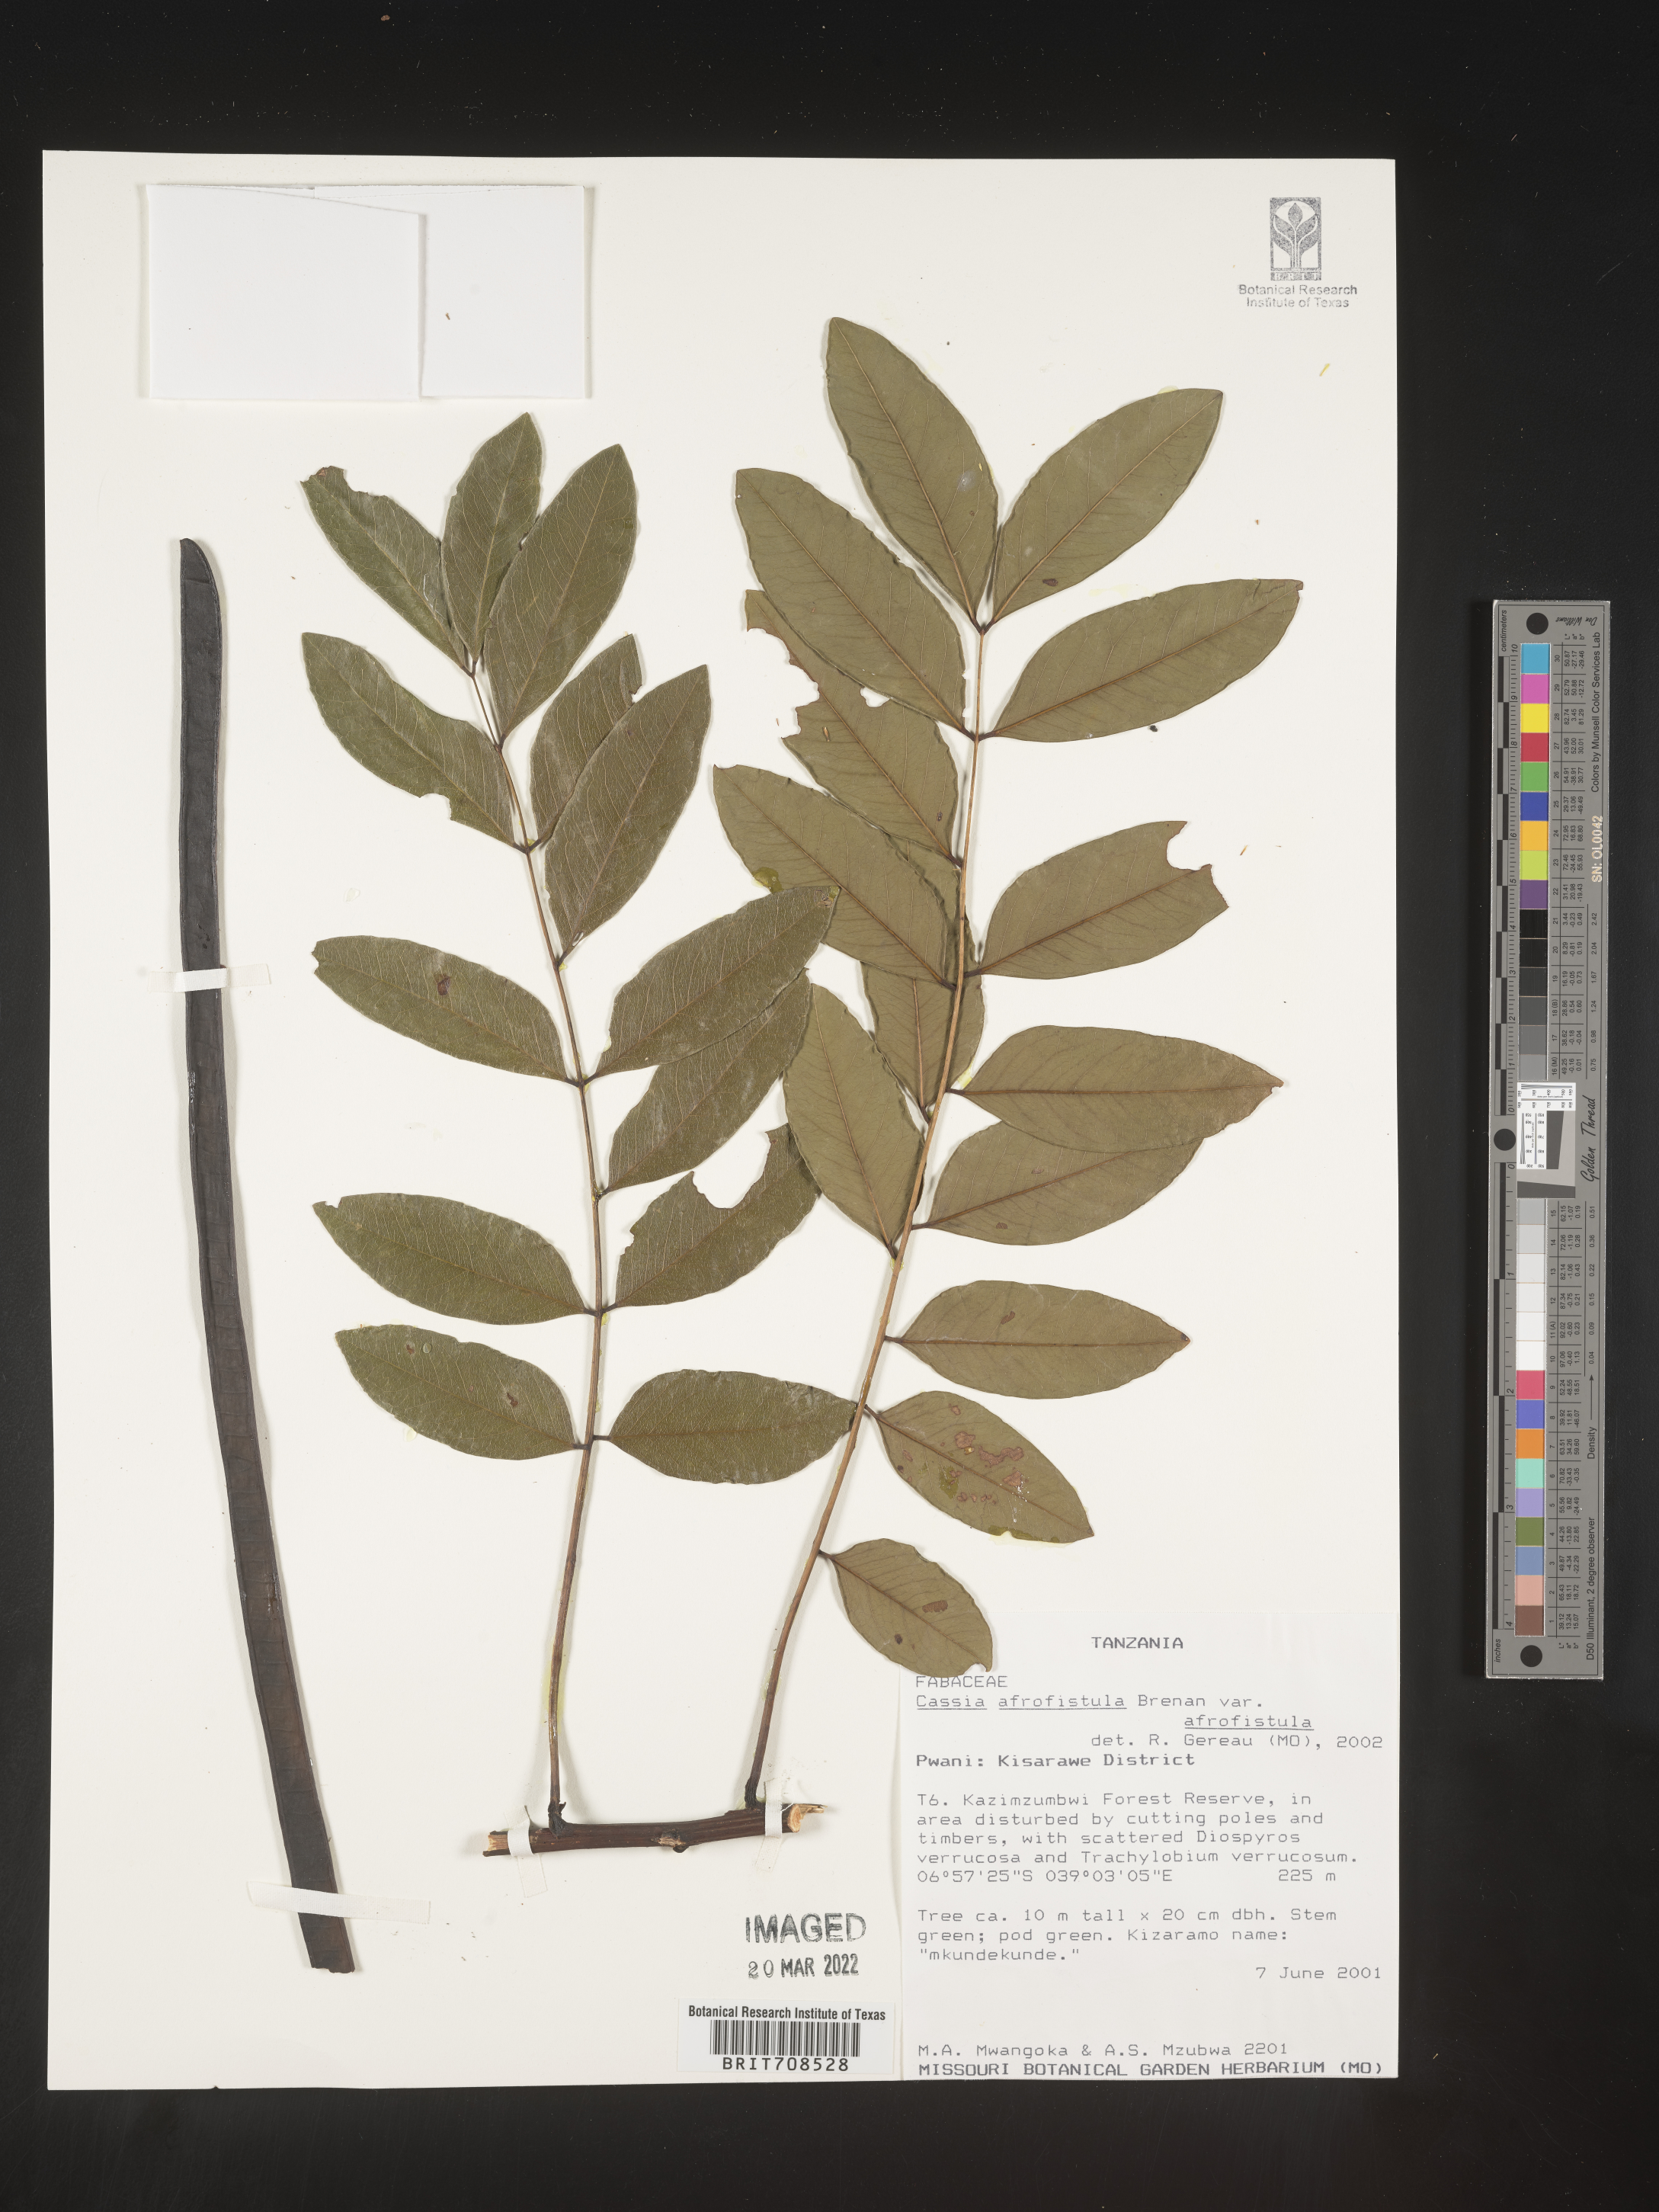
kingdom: Plantae
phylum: Tracheophyta
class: Magnoliopsida
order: Fabales
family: Fabaceae
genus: Cassia
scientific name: Cassia
